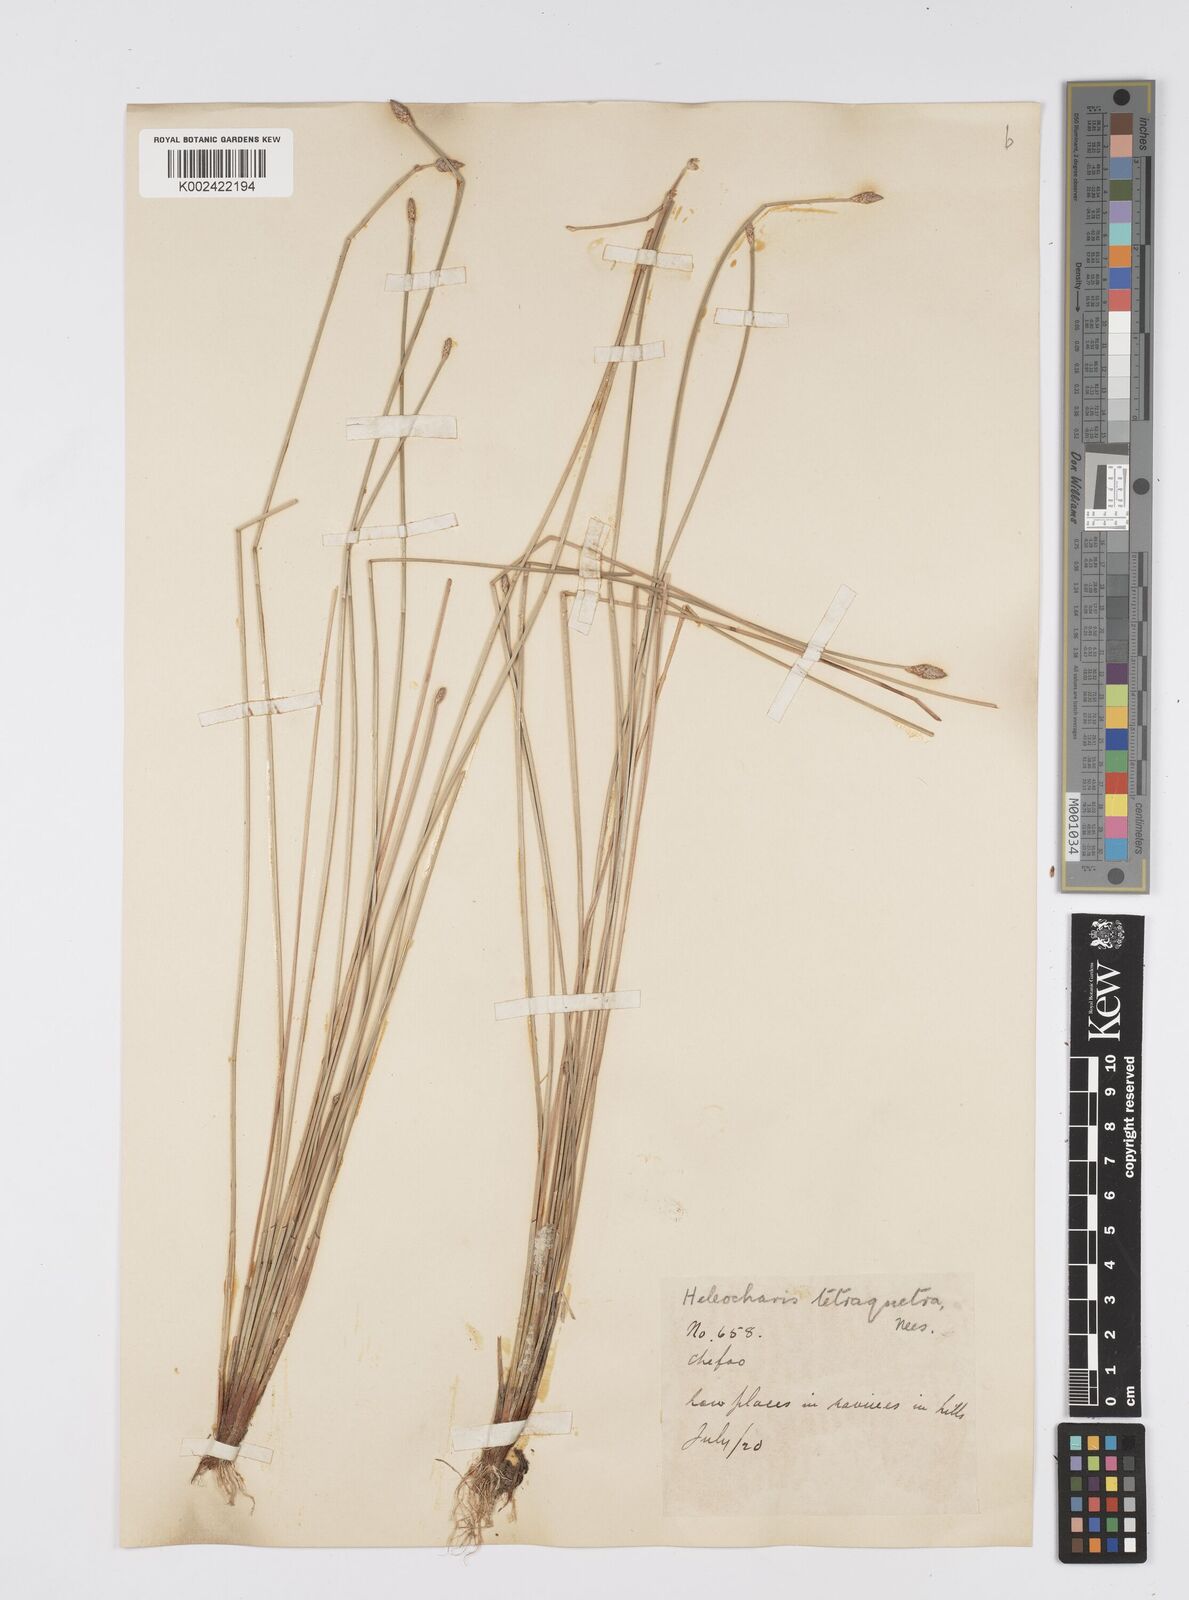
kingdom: Plantae
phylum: Tracheophyta
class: Liliopsida
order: Poales
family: Cyperaceae
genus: Eleocharis
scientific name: Eleocharis tetraquetra
